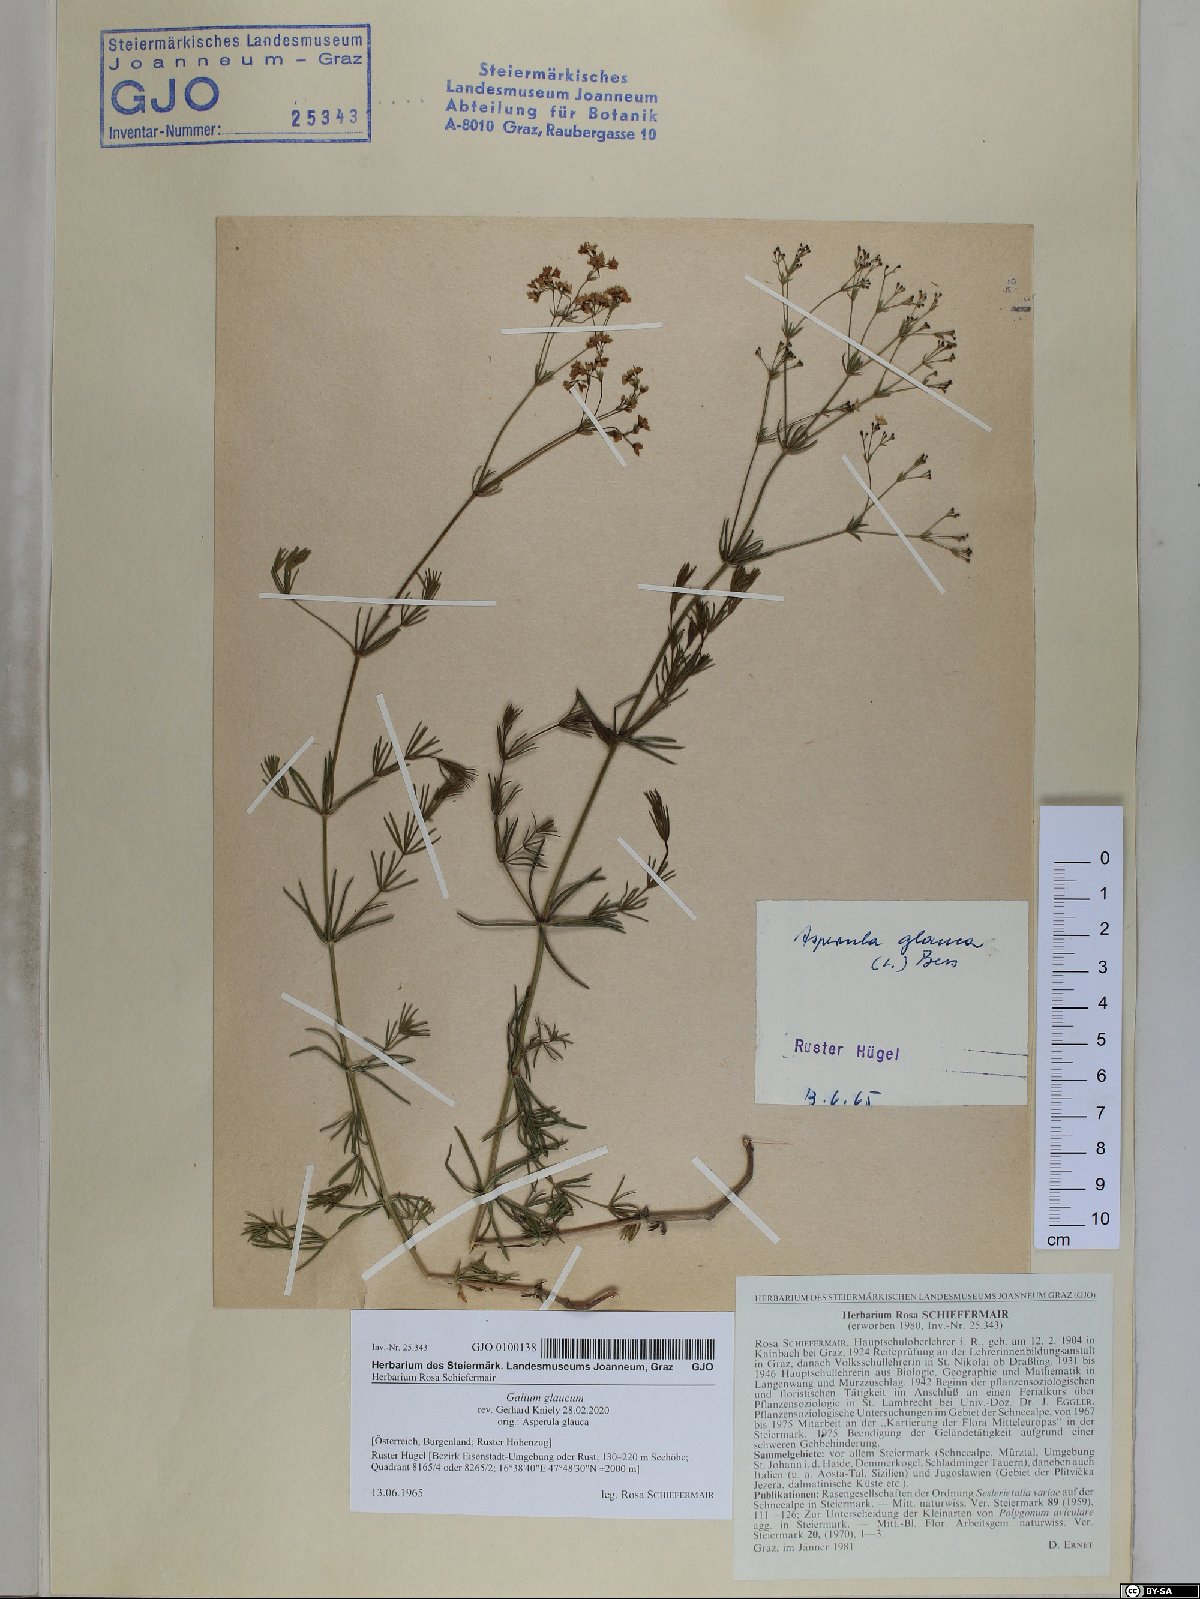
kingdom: Plantae
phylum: Tracheophyta
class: Magnoliopsida
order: Gentianales
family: Rubiaceae
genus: Galium
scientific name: Galium glaucum
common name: Waxy bedstraw
